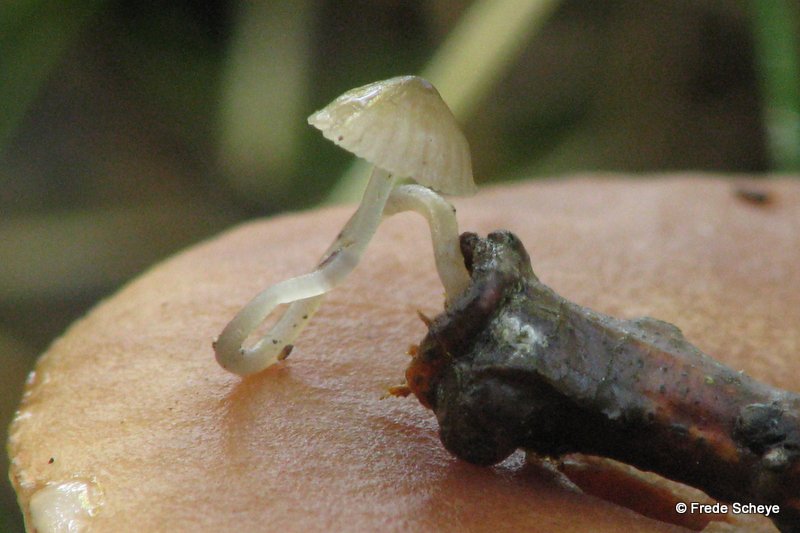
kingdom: Fungi
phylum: Basidiomycota
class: Agaricomycetes
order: Agaricales
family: Porotheleaceae
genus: Phloeomana
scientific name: Phloeomana speirea
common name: kvist-huesvamp
